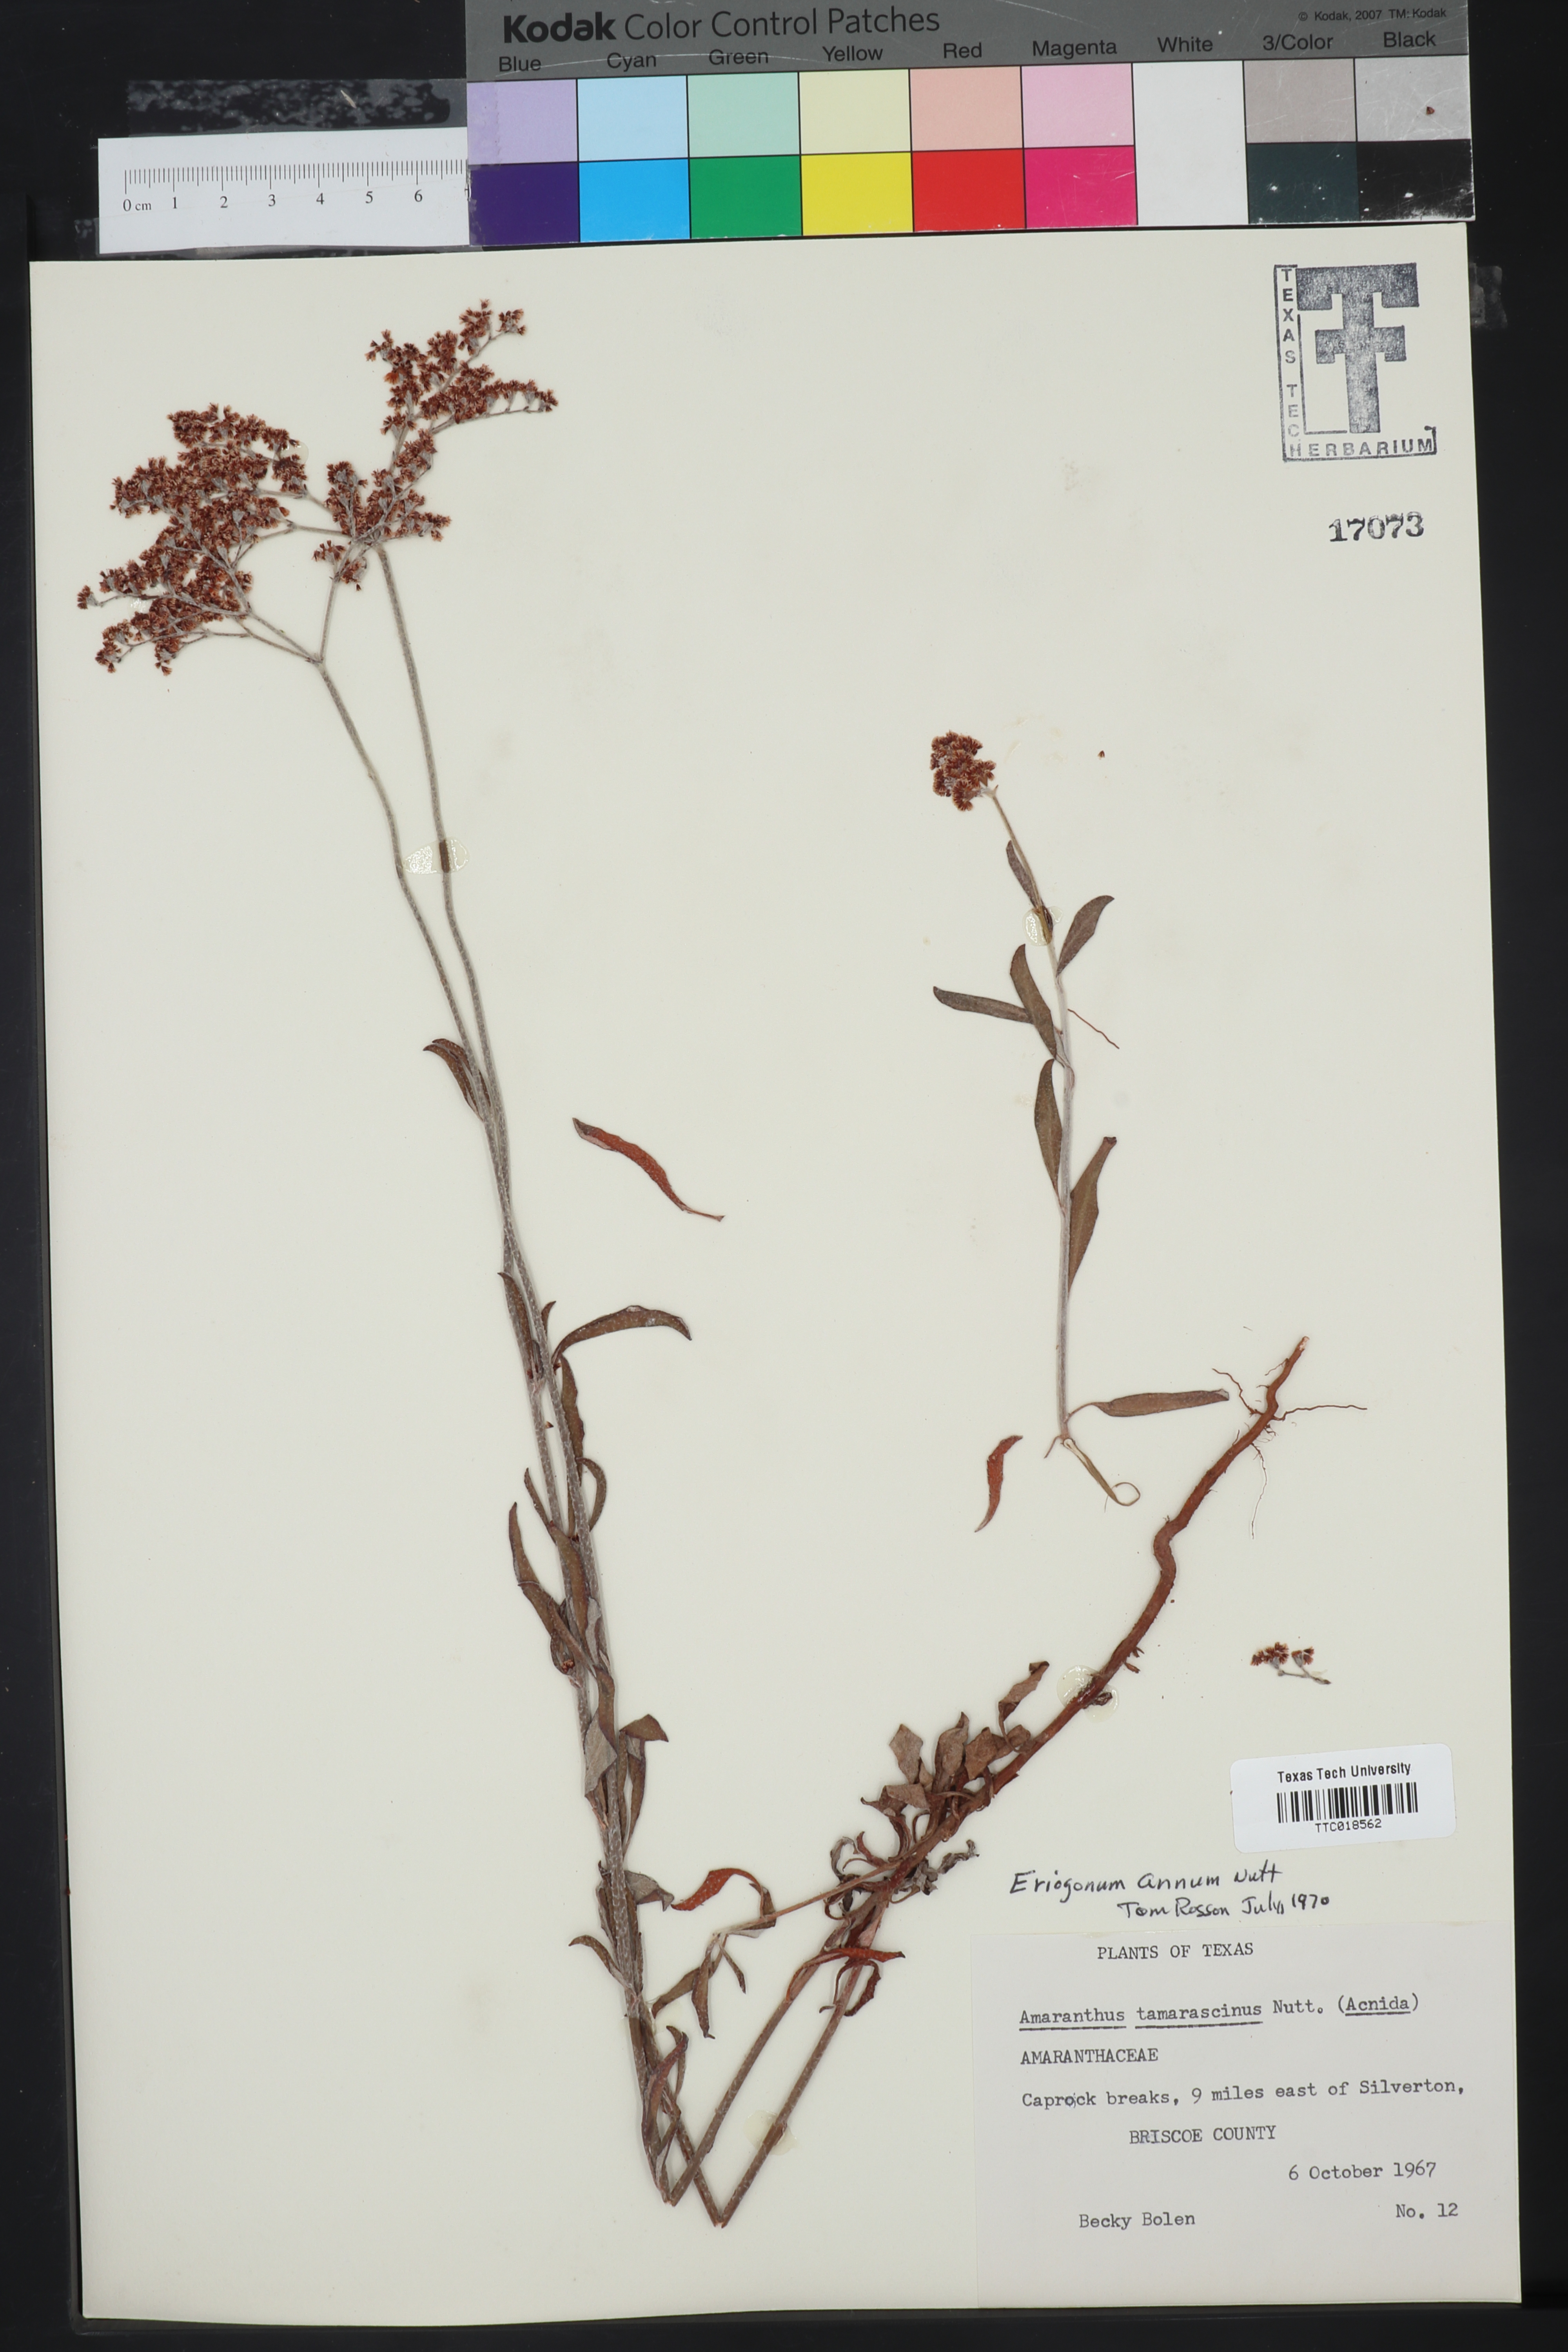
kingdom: Plantae
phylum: Tracheophyta
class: Magnoliopsida
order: Caryophyllales
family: Polygonaceae
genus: Eriogonum
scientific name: Eriogonum annuum
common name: Annual wild buckwheat
